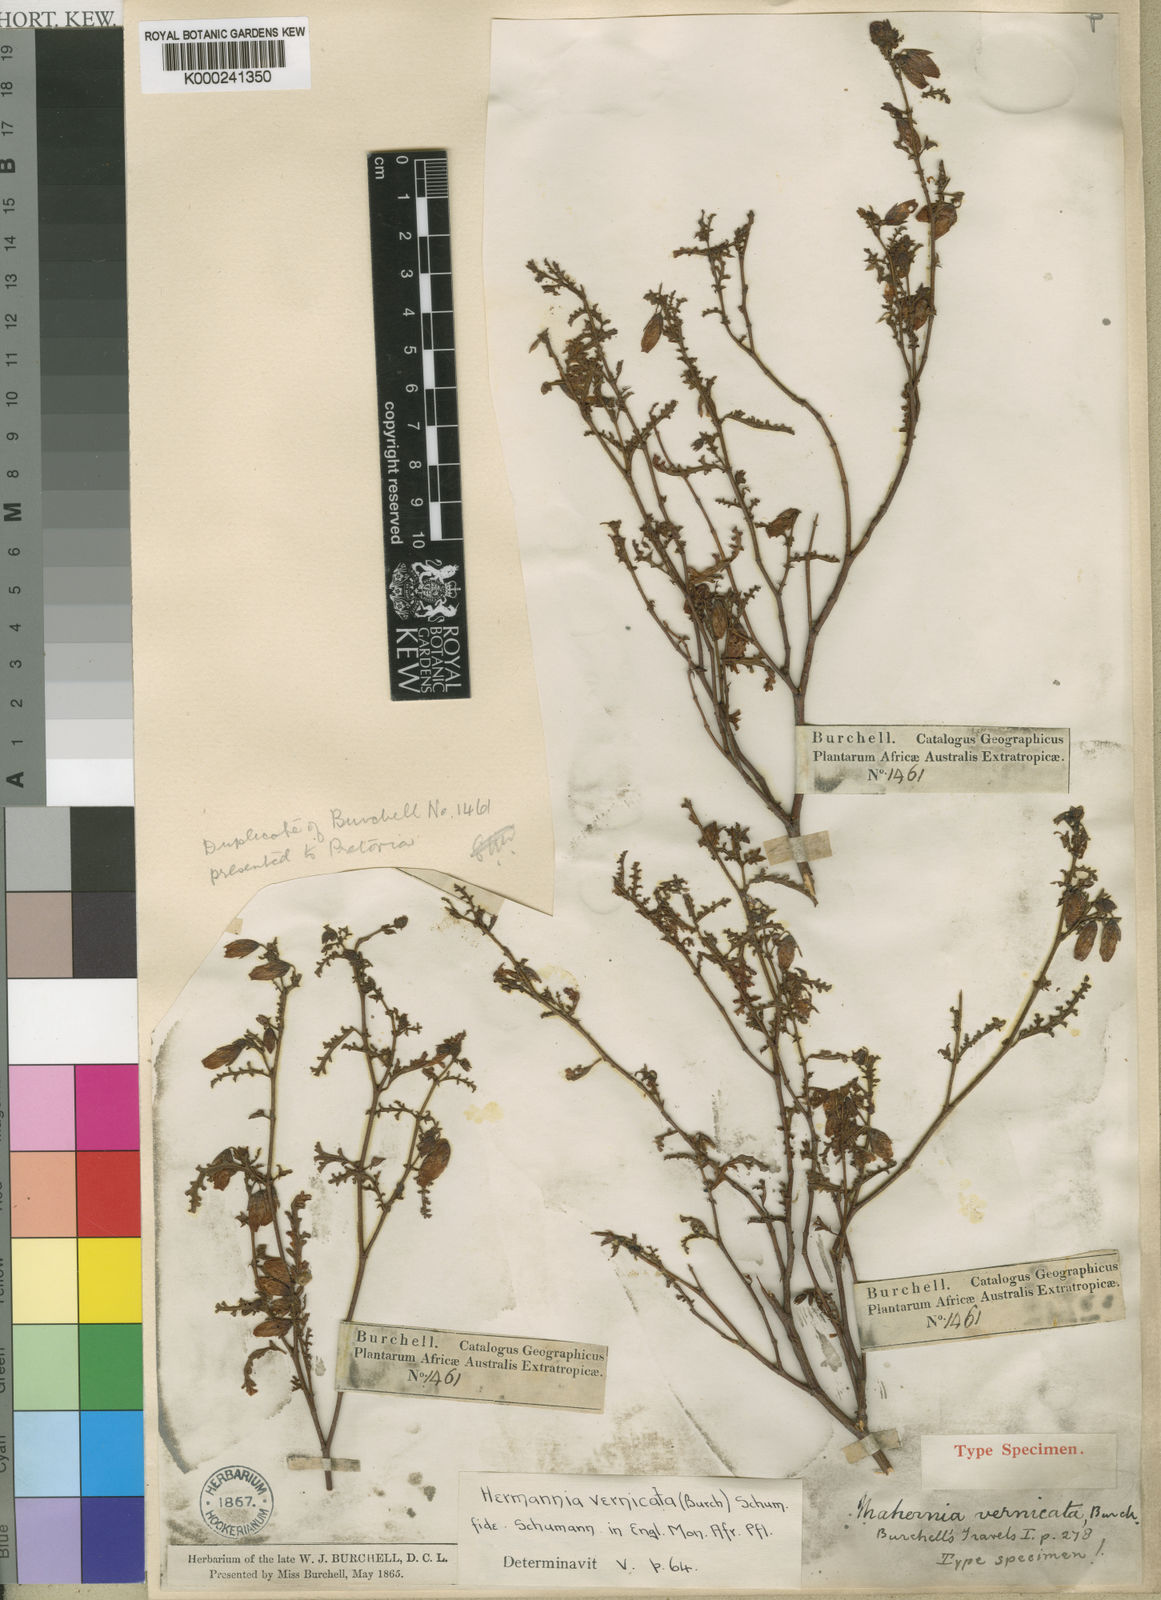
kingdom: Plantae
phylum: Tracheophyta
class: Magnoliopsida
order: Malvales
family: Malvaceae
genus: Hermannia
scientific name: Hermannia pulchella
